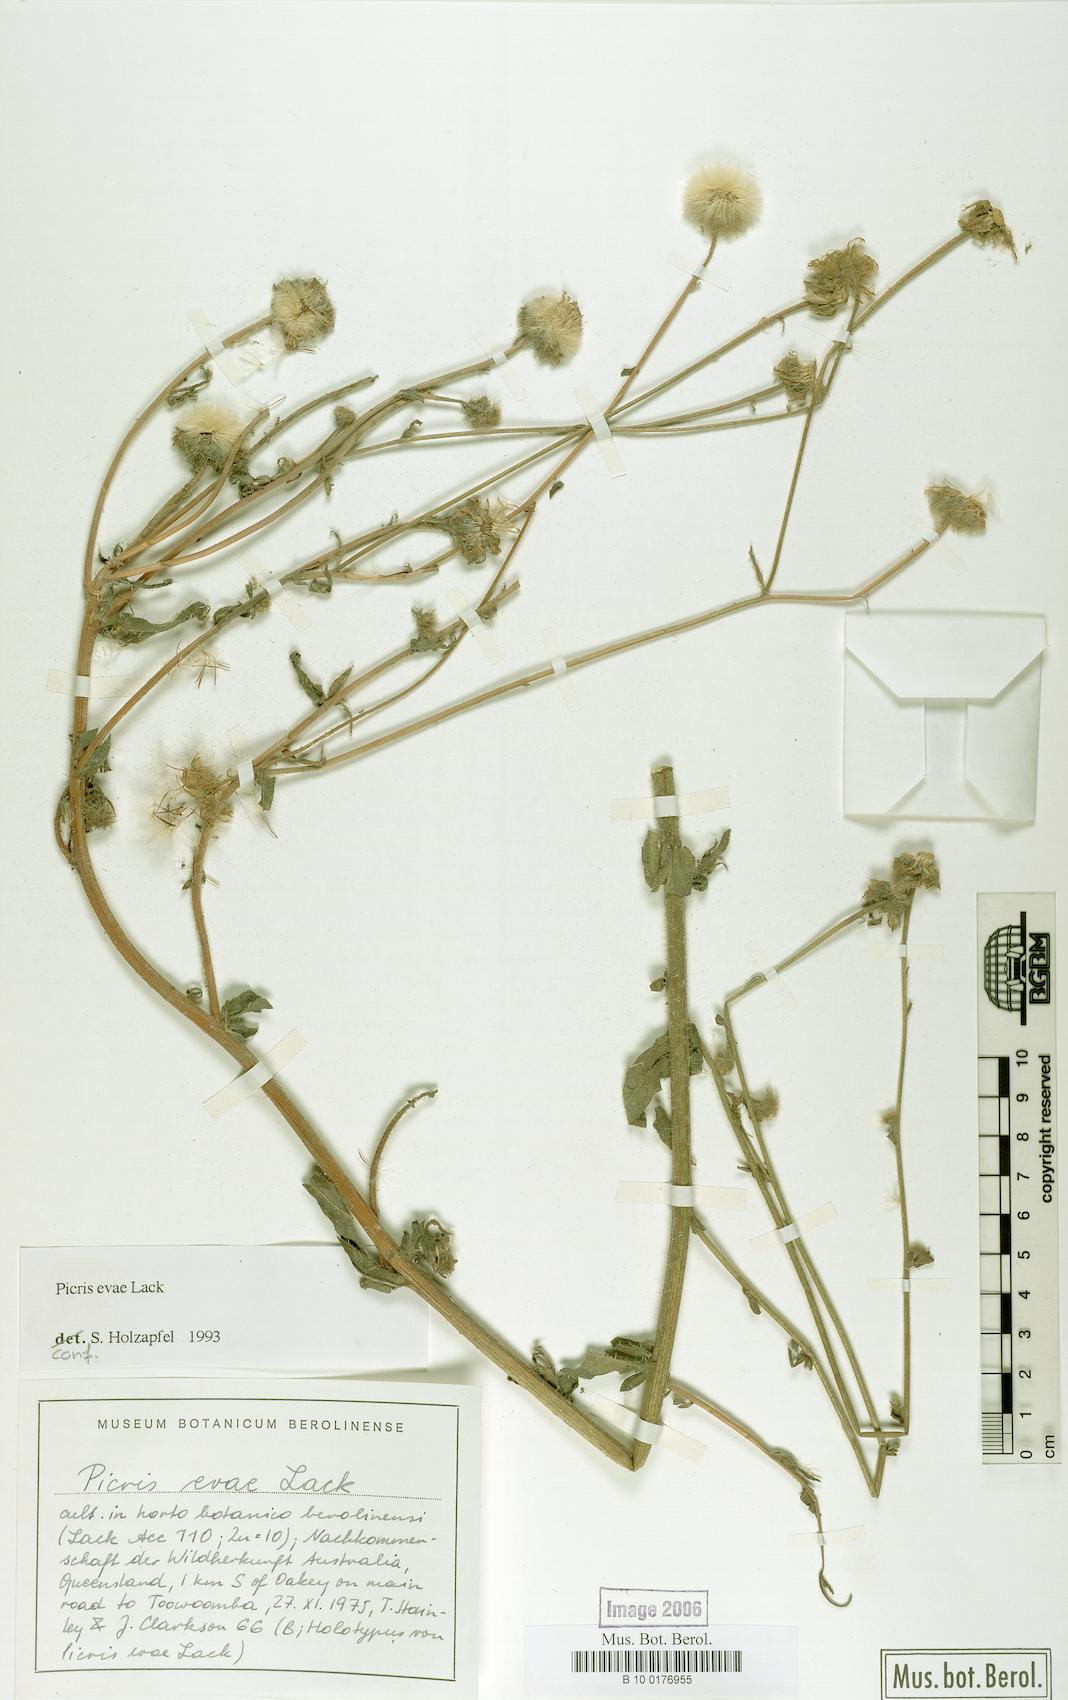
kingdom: Plantae
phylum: Tracheophyta
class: Magnoliopsida
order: Asterales
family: Asteraceae
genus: Picris
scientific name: Picris evae
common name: Hawkweed
